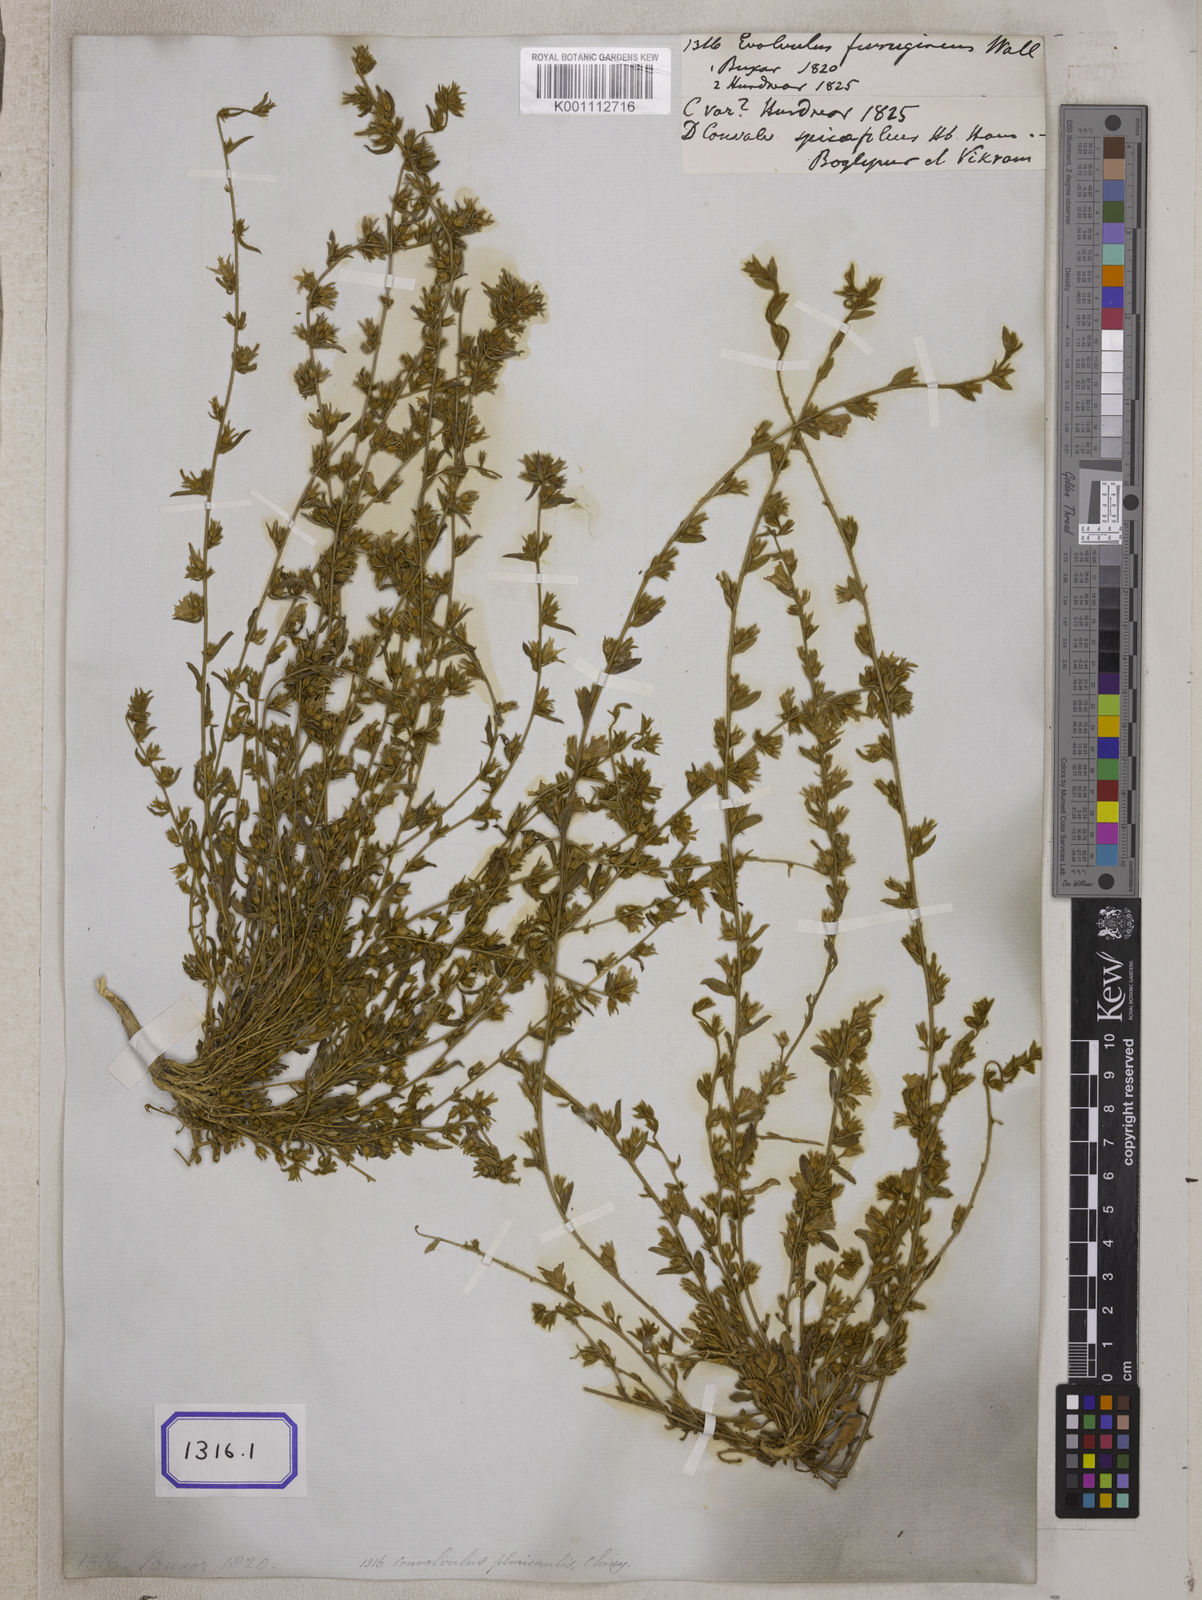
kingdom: Plantae
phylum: Tracheophyta
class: Magnoliopsida
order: Solanales
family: Convolvulaceae
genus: Evolvulus
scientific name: Evolvulus
